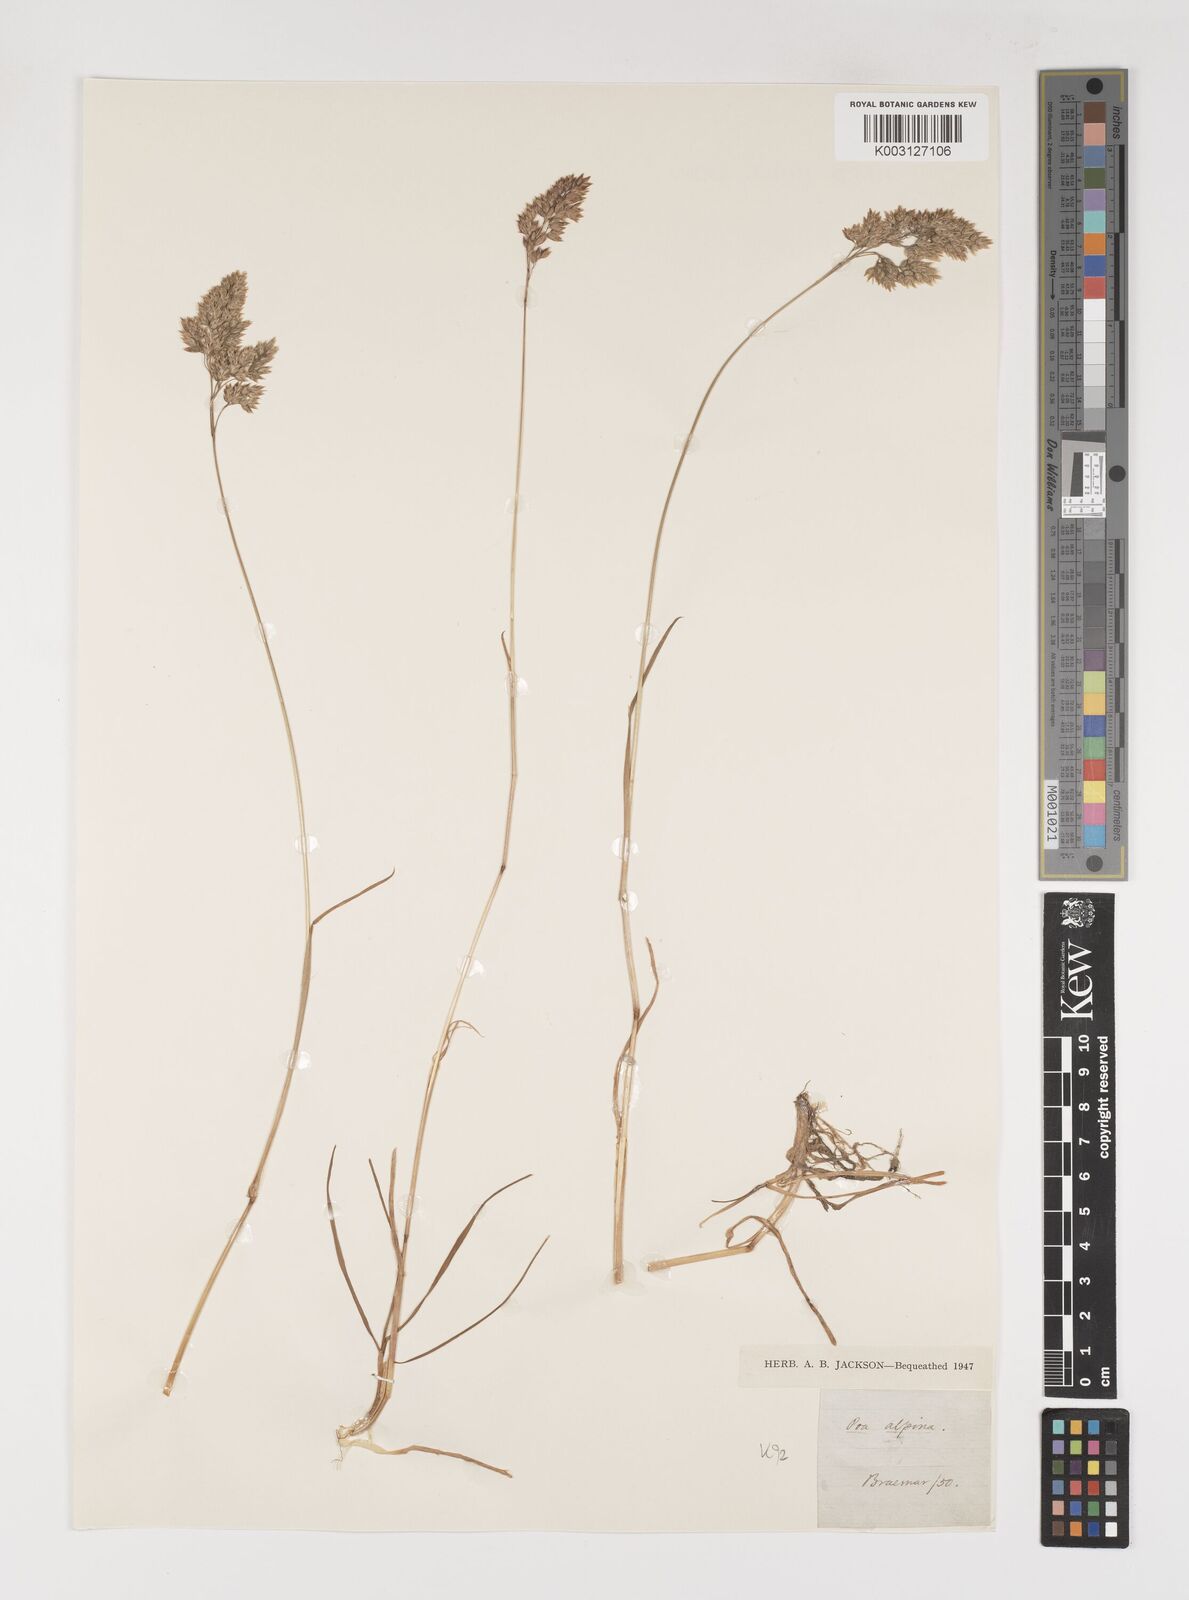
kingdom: Plantae
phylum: Tracheophyta
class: Liliopsida
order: Poales
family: Poaceae
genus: Poa
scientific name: Poa alpina
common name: Alpine bluegrass
